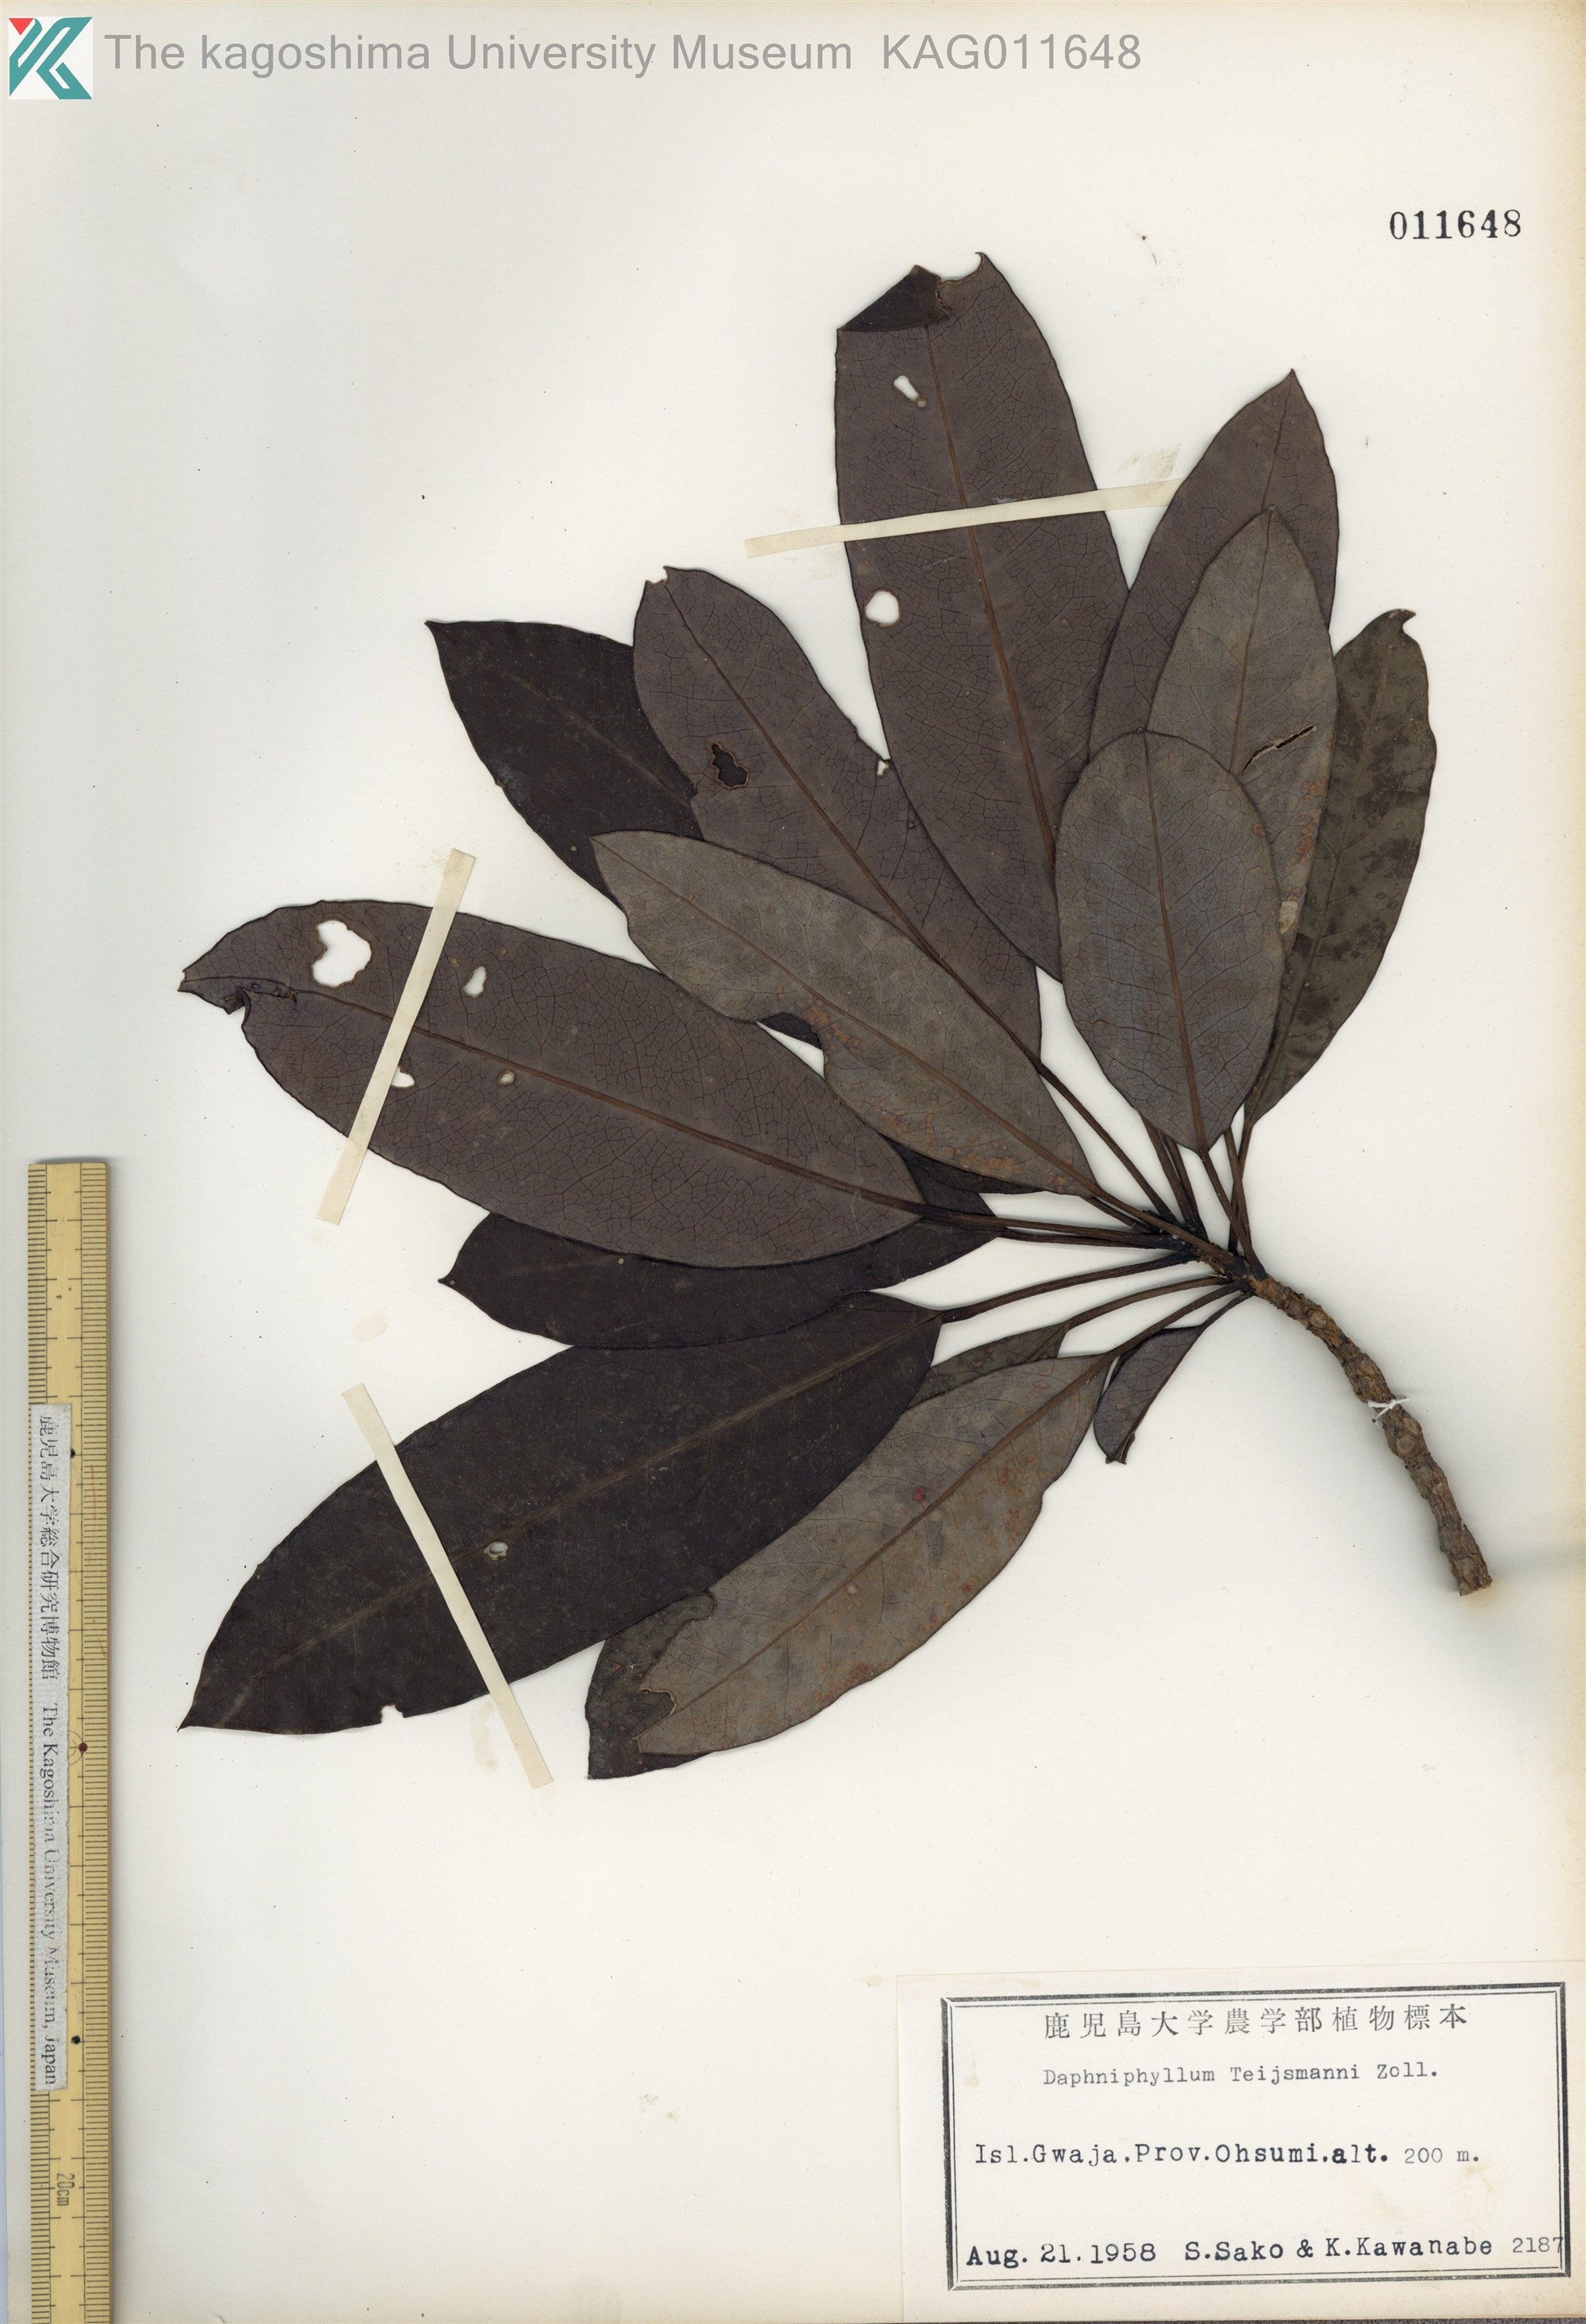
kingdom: Plantae
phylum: Tracheophyta
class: Magnoliopsida
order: Saxifragales
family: Daphniphyllaceae
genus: Daphniphyllum
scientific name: Daphniphyllum teijsmannii
